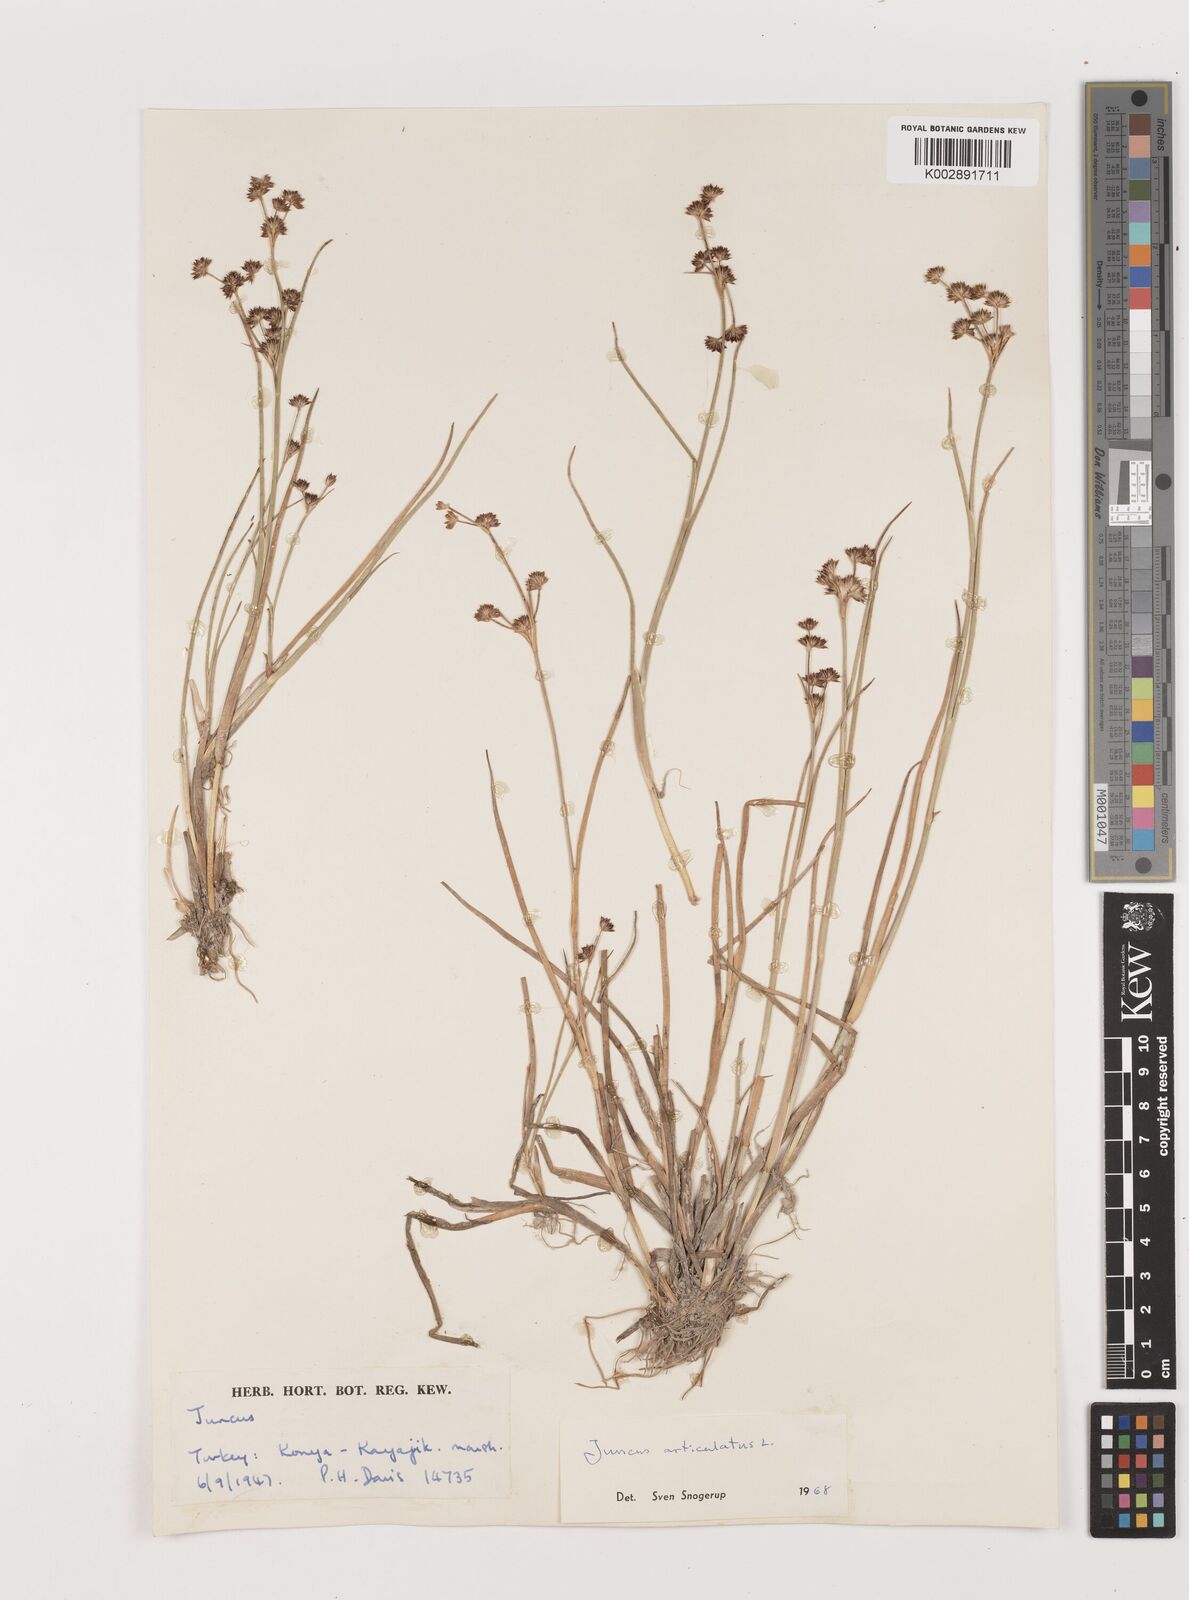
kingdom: Plantae
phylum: Tracheophyta
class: Liliopsida
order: Poales
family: Juncaceae
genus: Juncus
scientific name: Juncus articulatus
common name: Jointed rush
